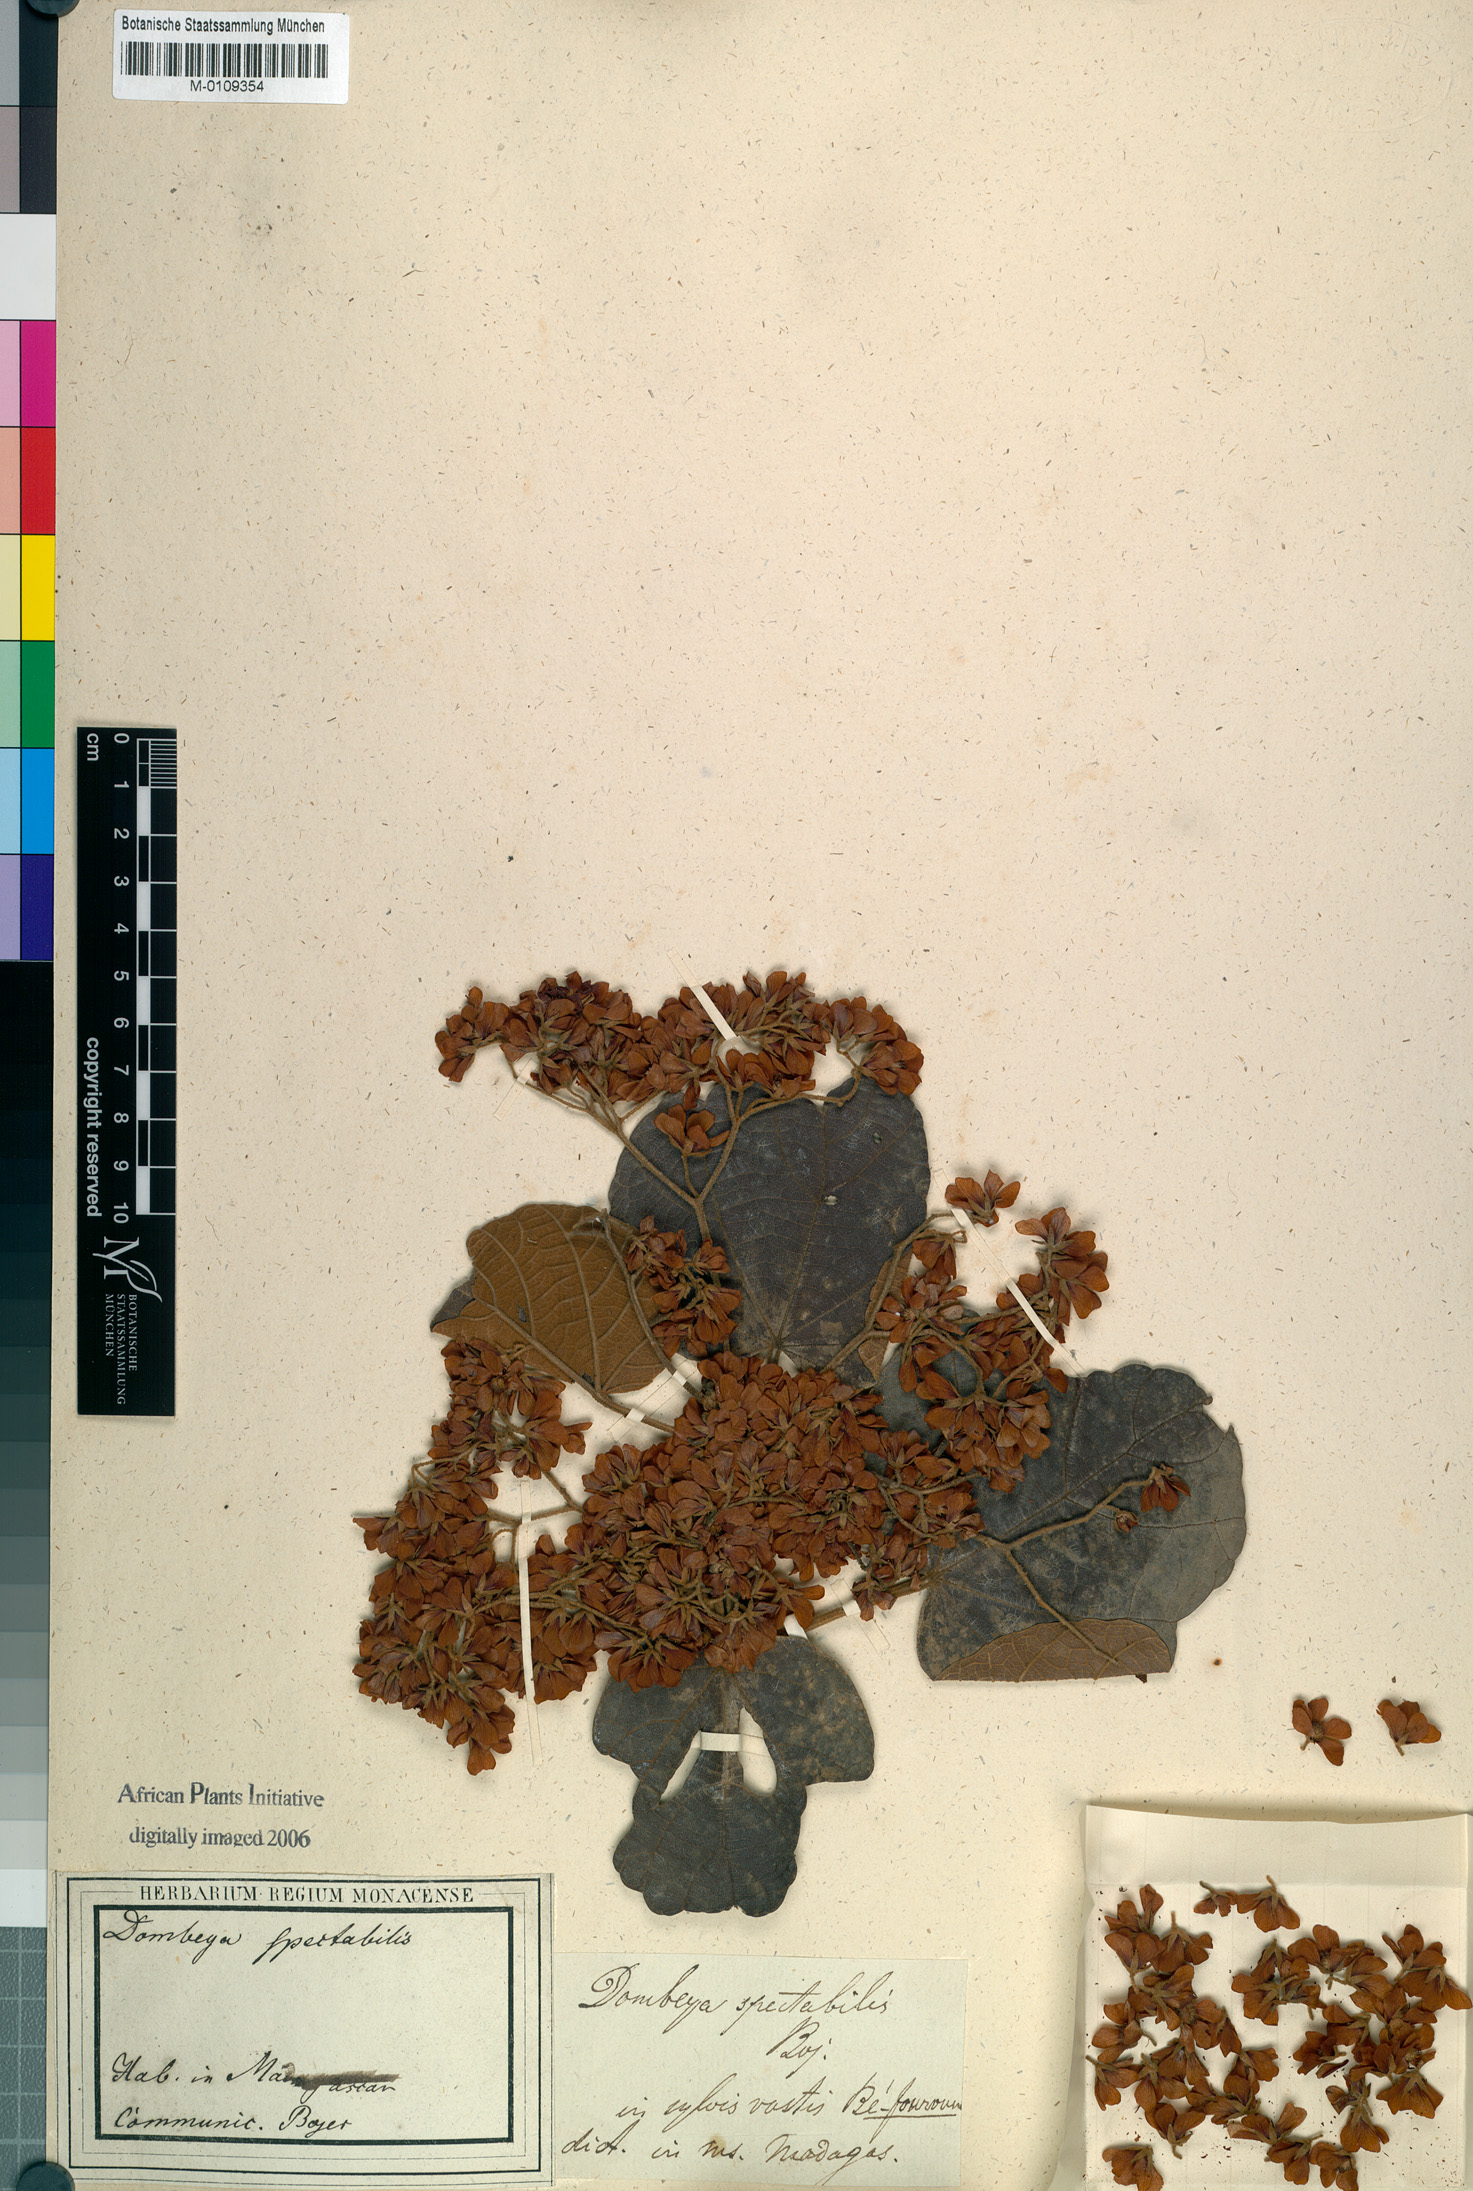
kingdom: Plantae
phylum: Tracheophyta
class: Magnoliopsida
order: Malvales
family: Malvaceae
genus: Dombeya
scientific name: Dombeya spectabilis
